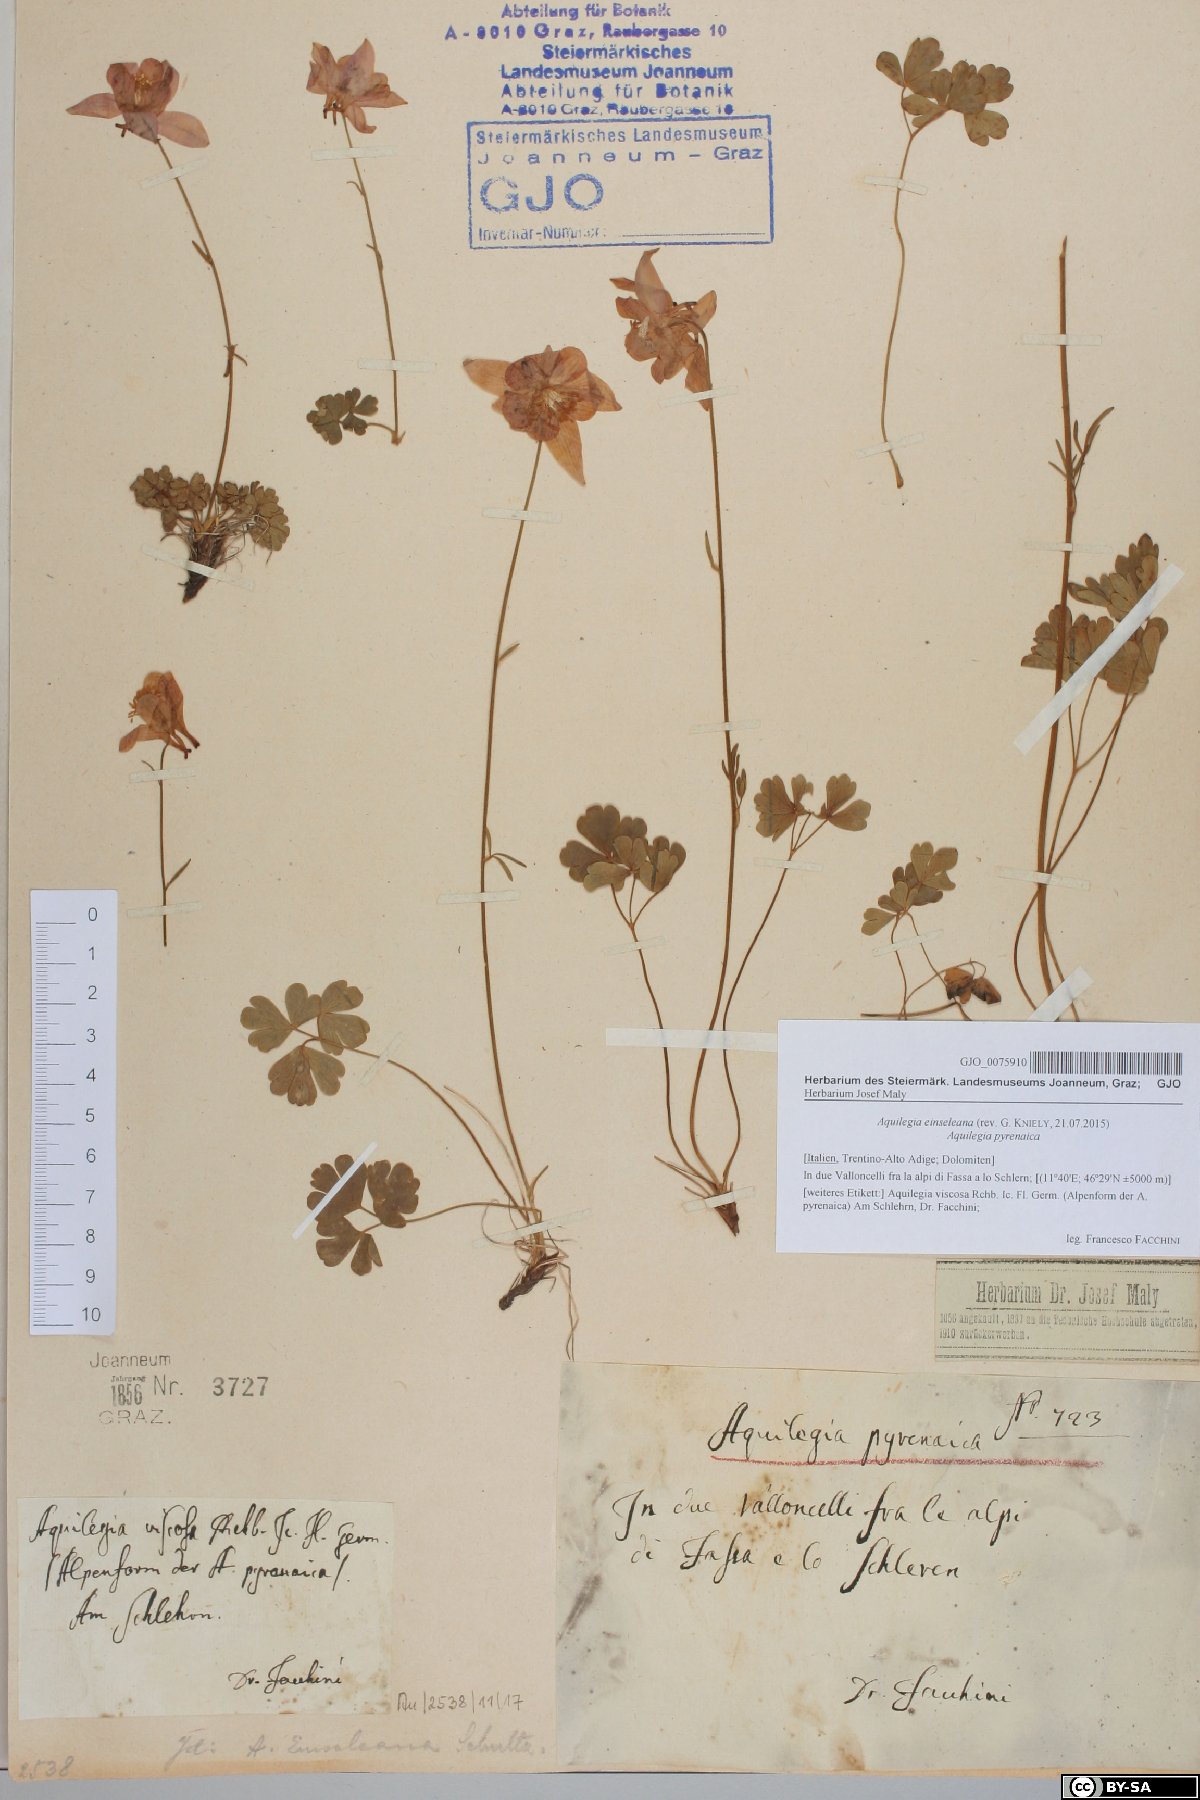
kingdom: Plantae
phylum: Tracheophyta
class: Magnoliopsida
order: Ranunculales
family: Ranunculaceae
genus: Aquilegia
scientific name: Aquilegia einseleana
